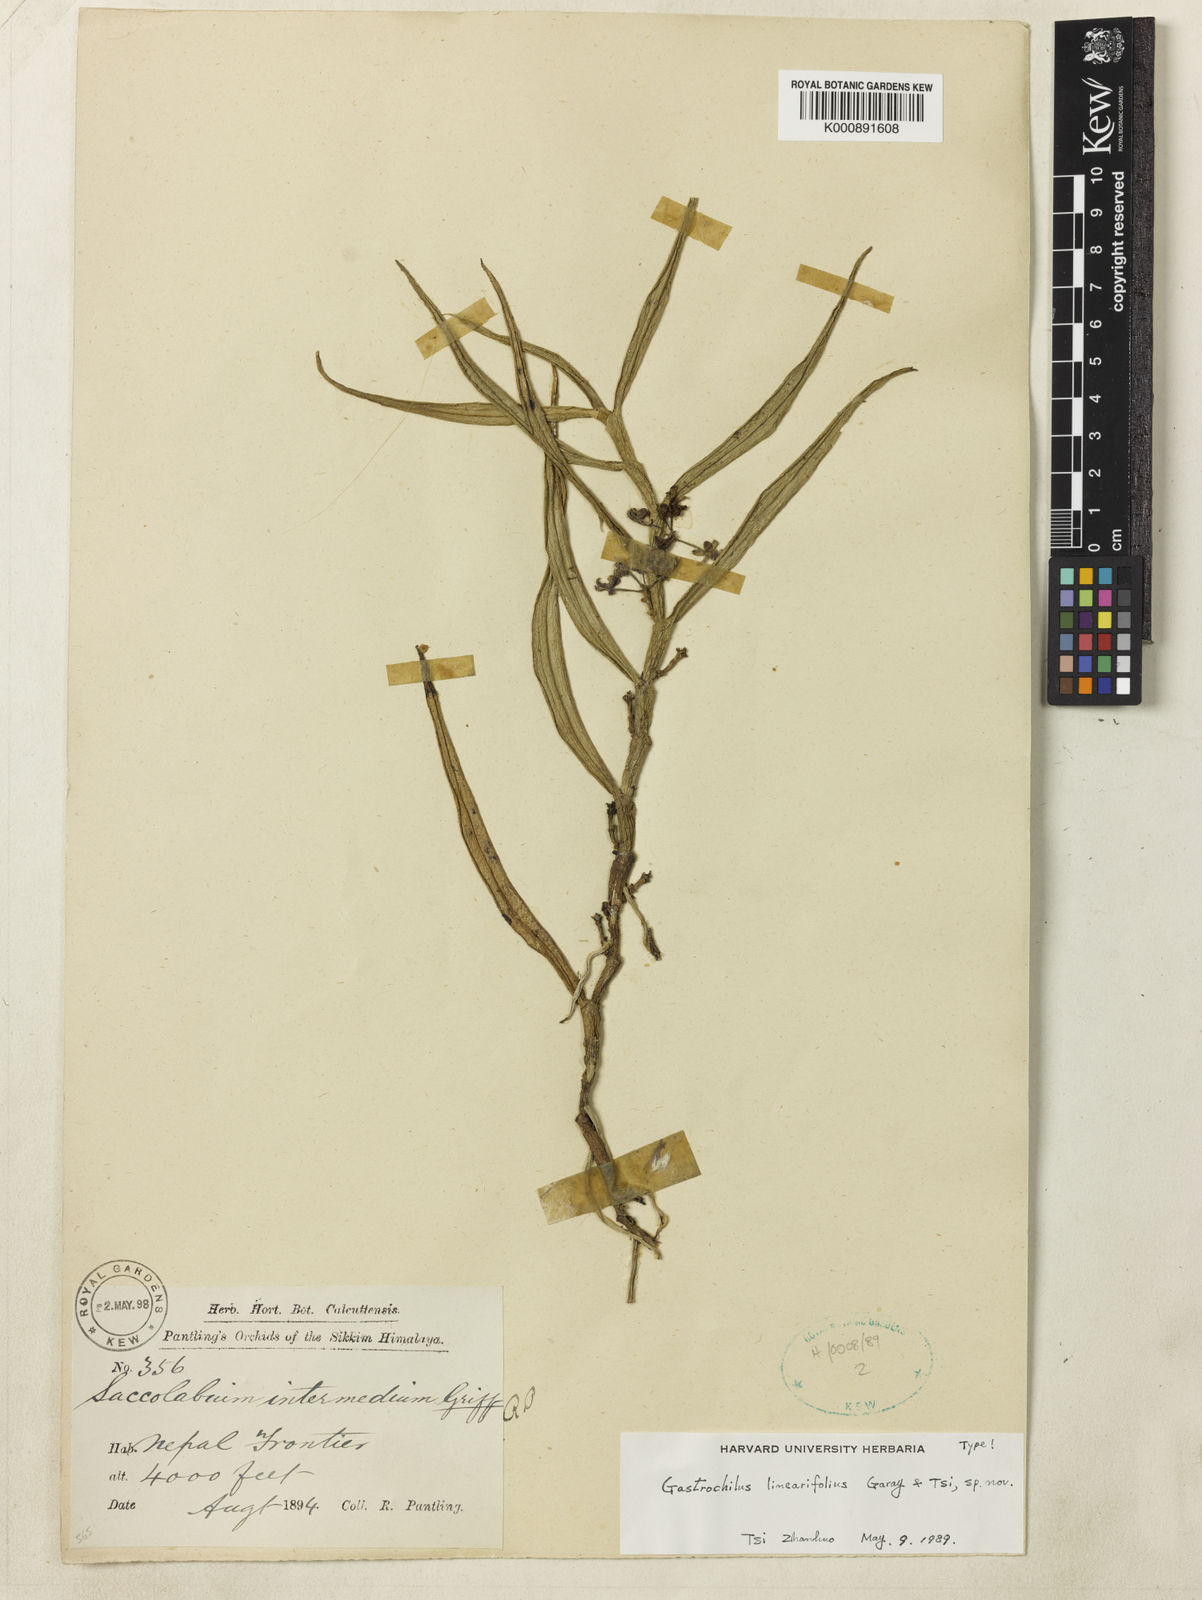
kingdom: Plantae
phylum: Tracheophyta
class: Liliopsida
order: Asparagales
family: Orchidaceae
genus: Gastrochilus
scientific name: Gastrochilus linearifolius
